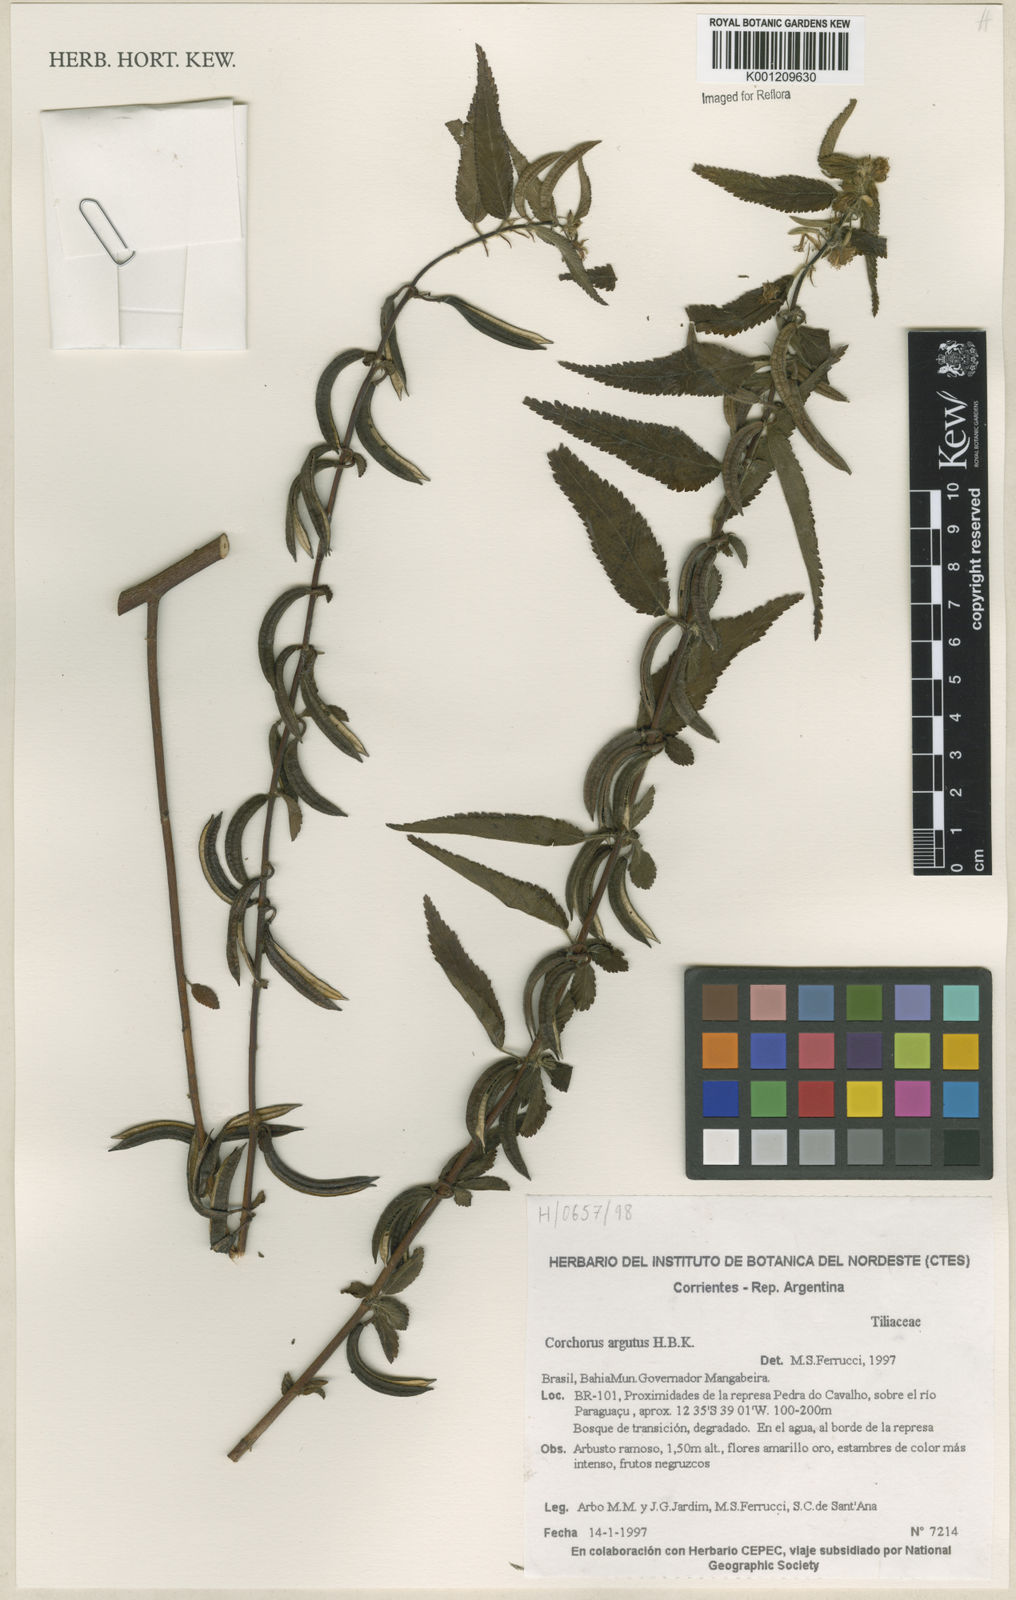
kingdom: Plantae
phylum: Tracheophyta
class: Magnoliopsida
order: Malvales
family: Malvaceae
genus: Corchorus
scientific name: Corchorus argutus
